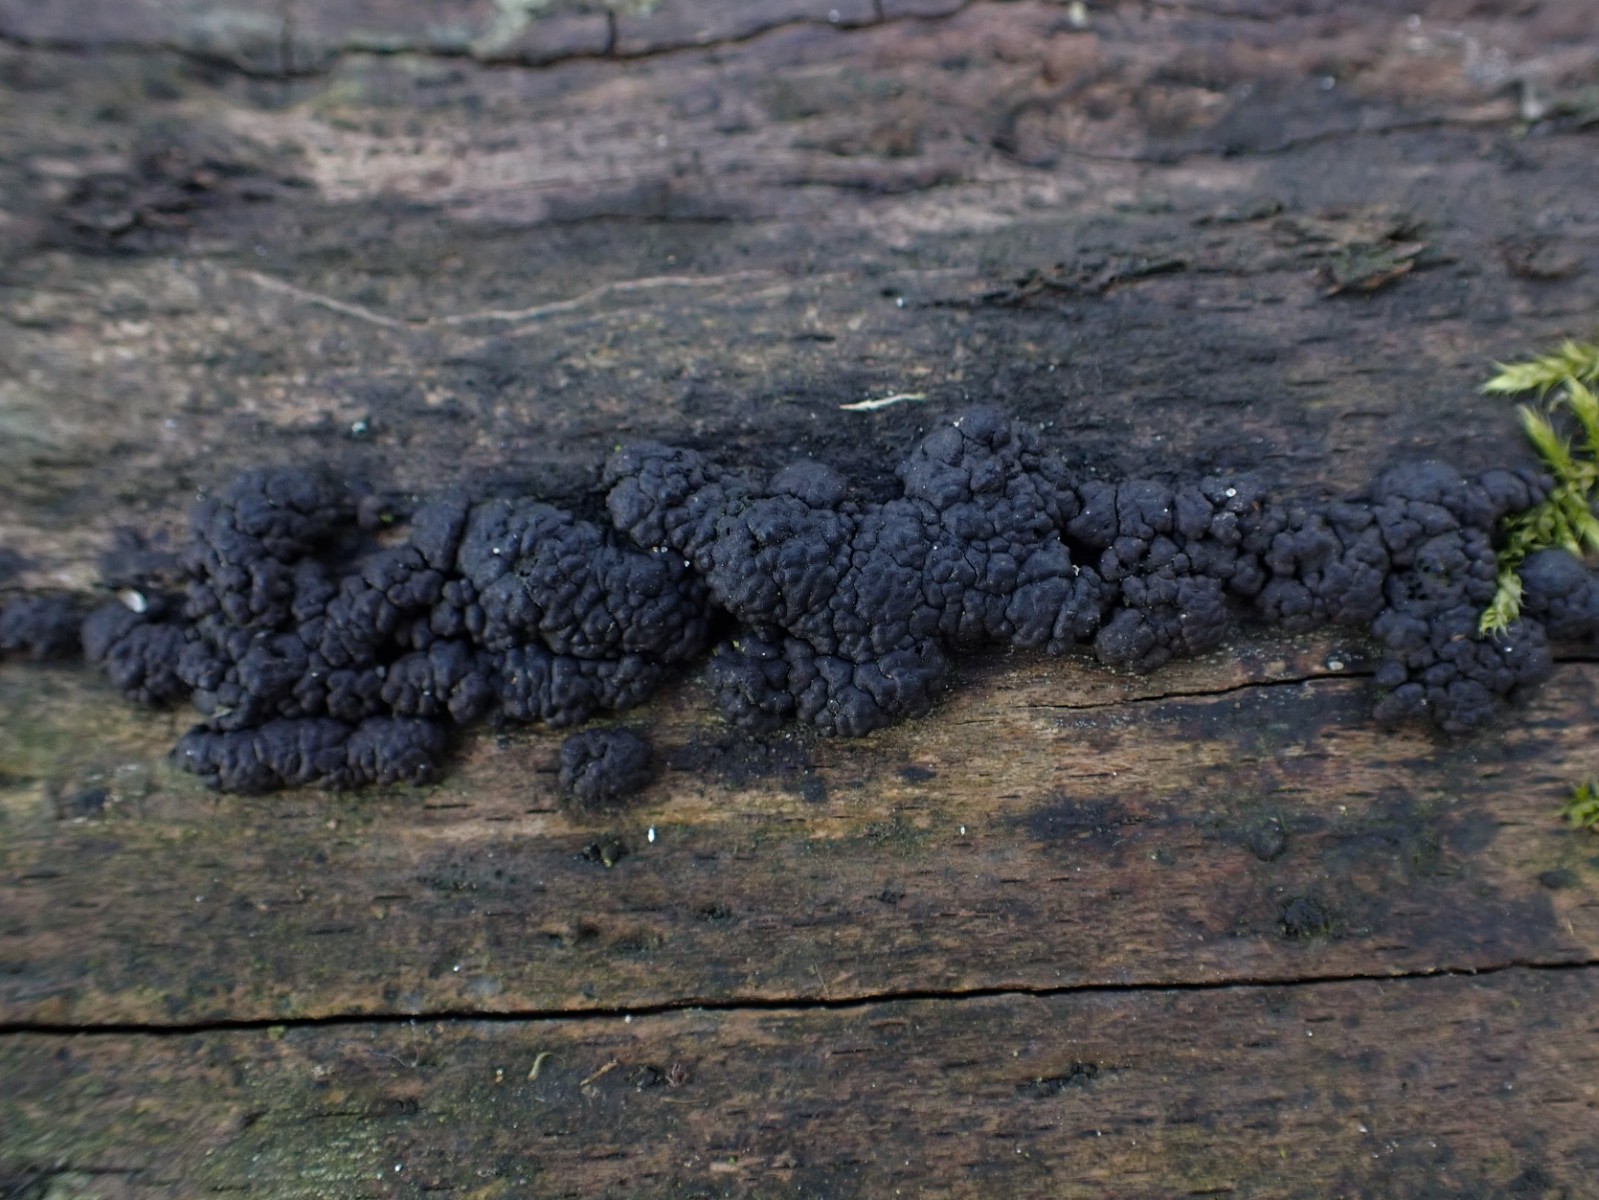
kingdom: Fungi
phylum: Ascomycota
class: Sordariomycetes
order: Xylariales
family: Hypoxylaceae
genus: Jackrogersella
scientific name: Jackrogersella cohaerens
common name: sammenflydende kulbær
